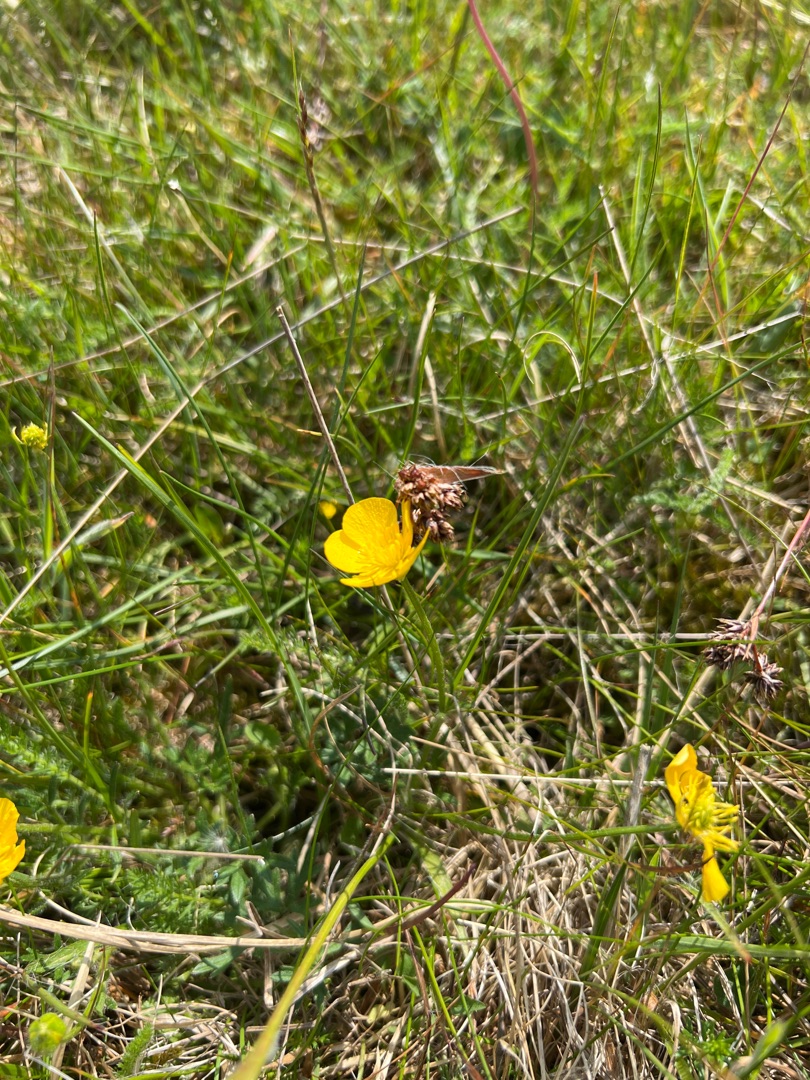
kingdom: Plantae
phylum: Tracheophyta
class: Magnoliopsida
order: Ranunculales
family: Ranunculaceae
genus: Ranunculus
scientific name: Ranunculus bulbosus
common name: Knold-ranunkel
